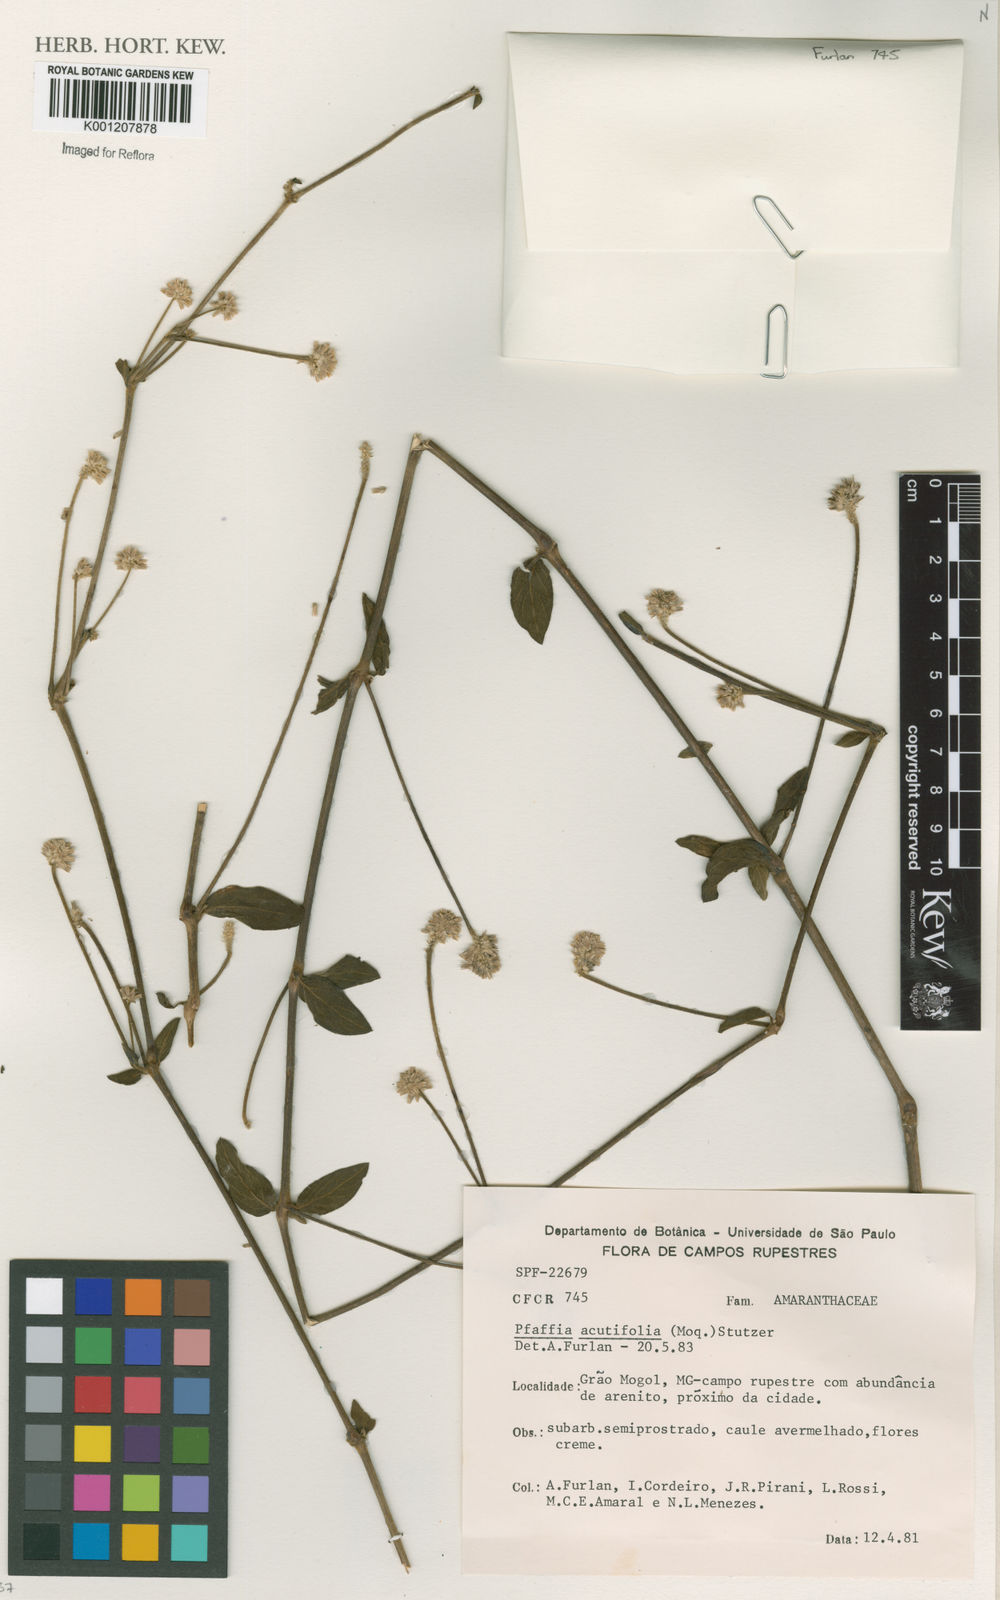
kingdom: Plantae
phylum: Tracheophyta
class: Magnoliopsida
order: Caryophyllales
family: Amaranthaceae
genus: Pfaffia
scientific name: Pfaffia
